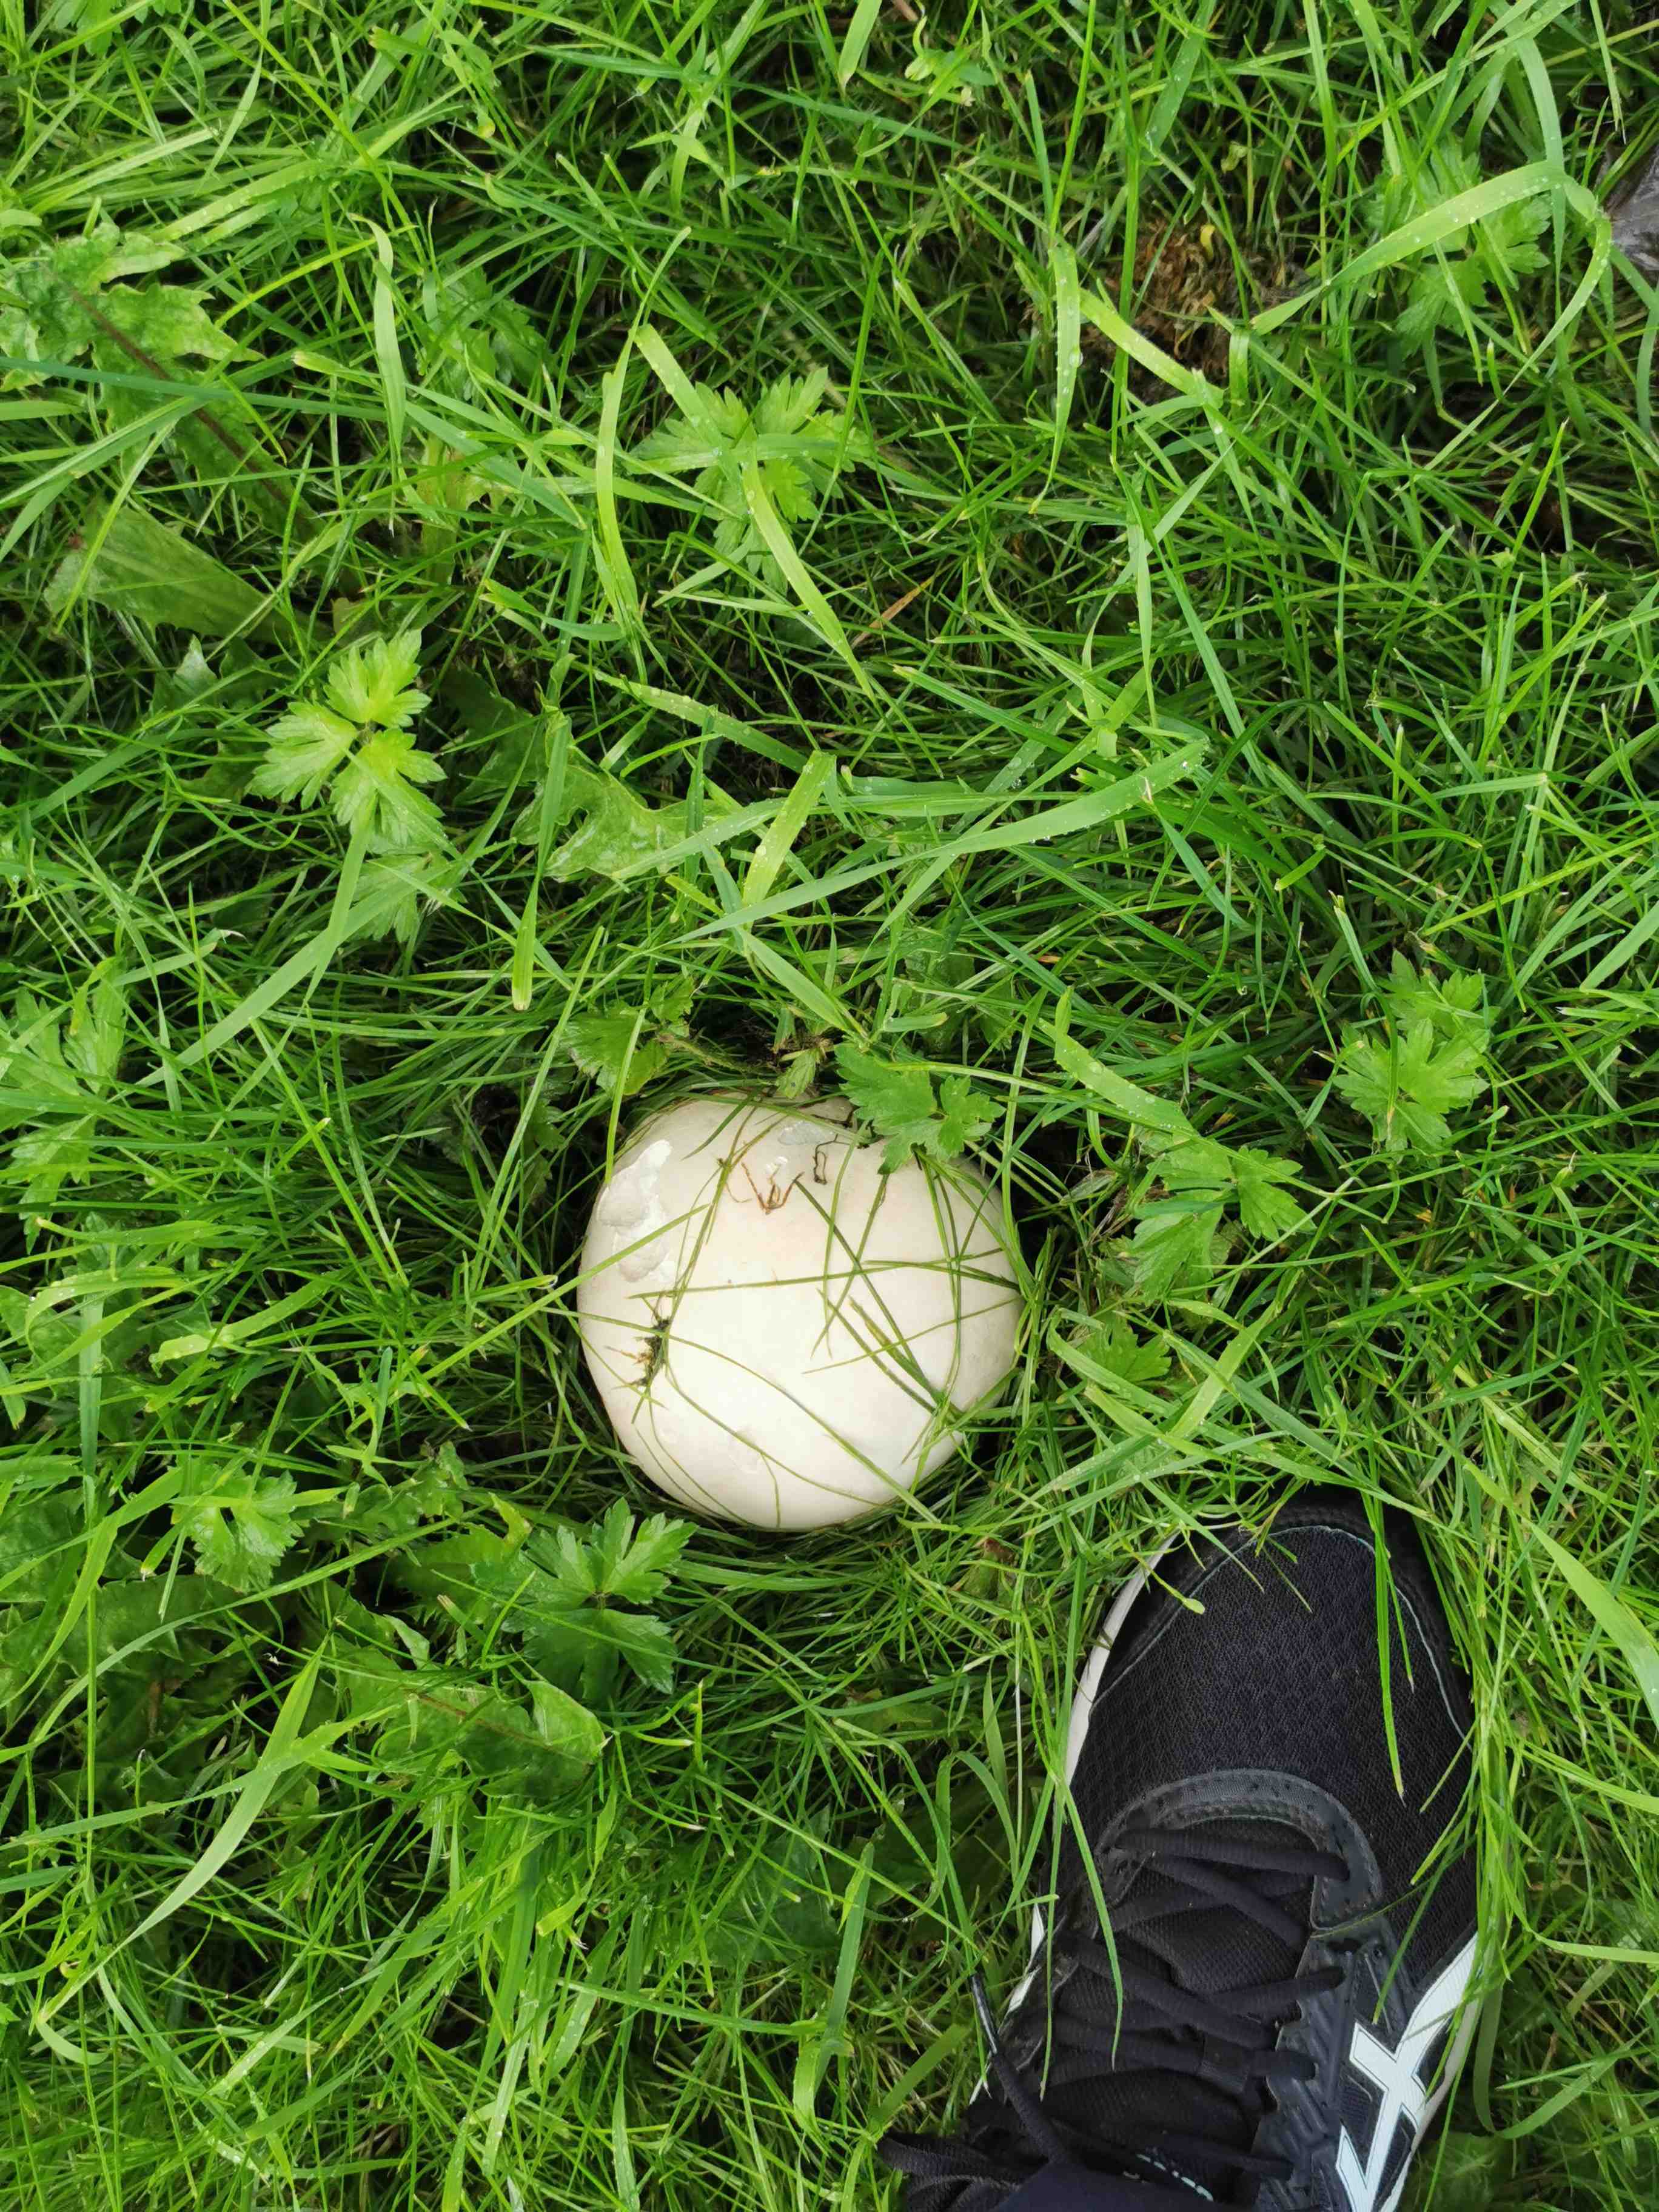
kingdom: Fungi
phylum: Basidiomycota
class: Agaricomycetes
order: Agaricales
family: Lycoperdaceae
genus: Calvatia
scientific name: Calvatia gigantea
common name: kæmpestøvbold
